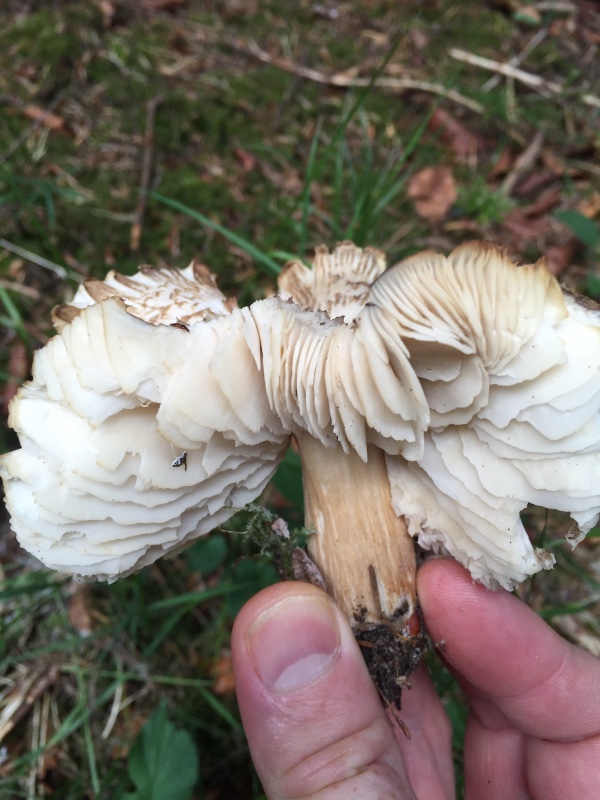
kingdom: Fungi
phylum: Basidiomycota
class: Agaricomycetes
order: Agaricales
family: Tricholomataceae
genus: Megacollybia
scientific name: Megacollybia platyphylla
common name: bredbladet væbnerhat
